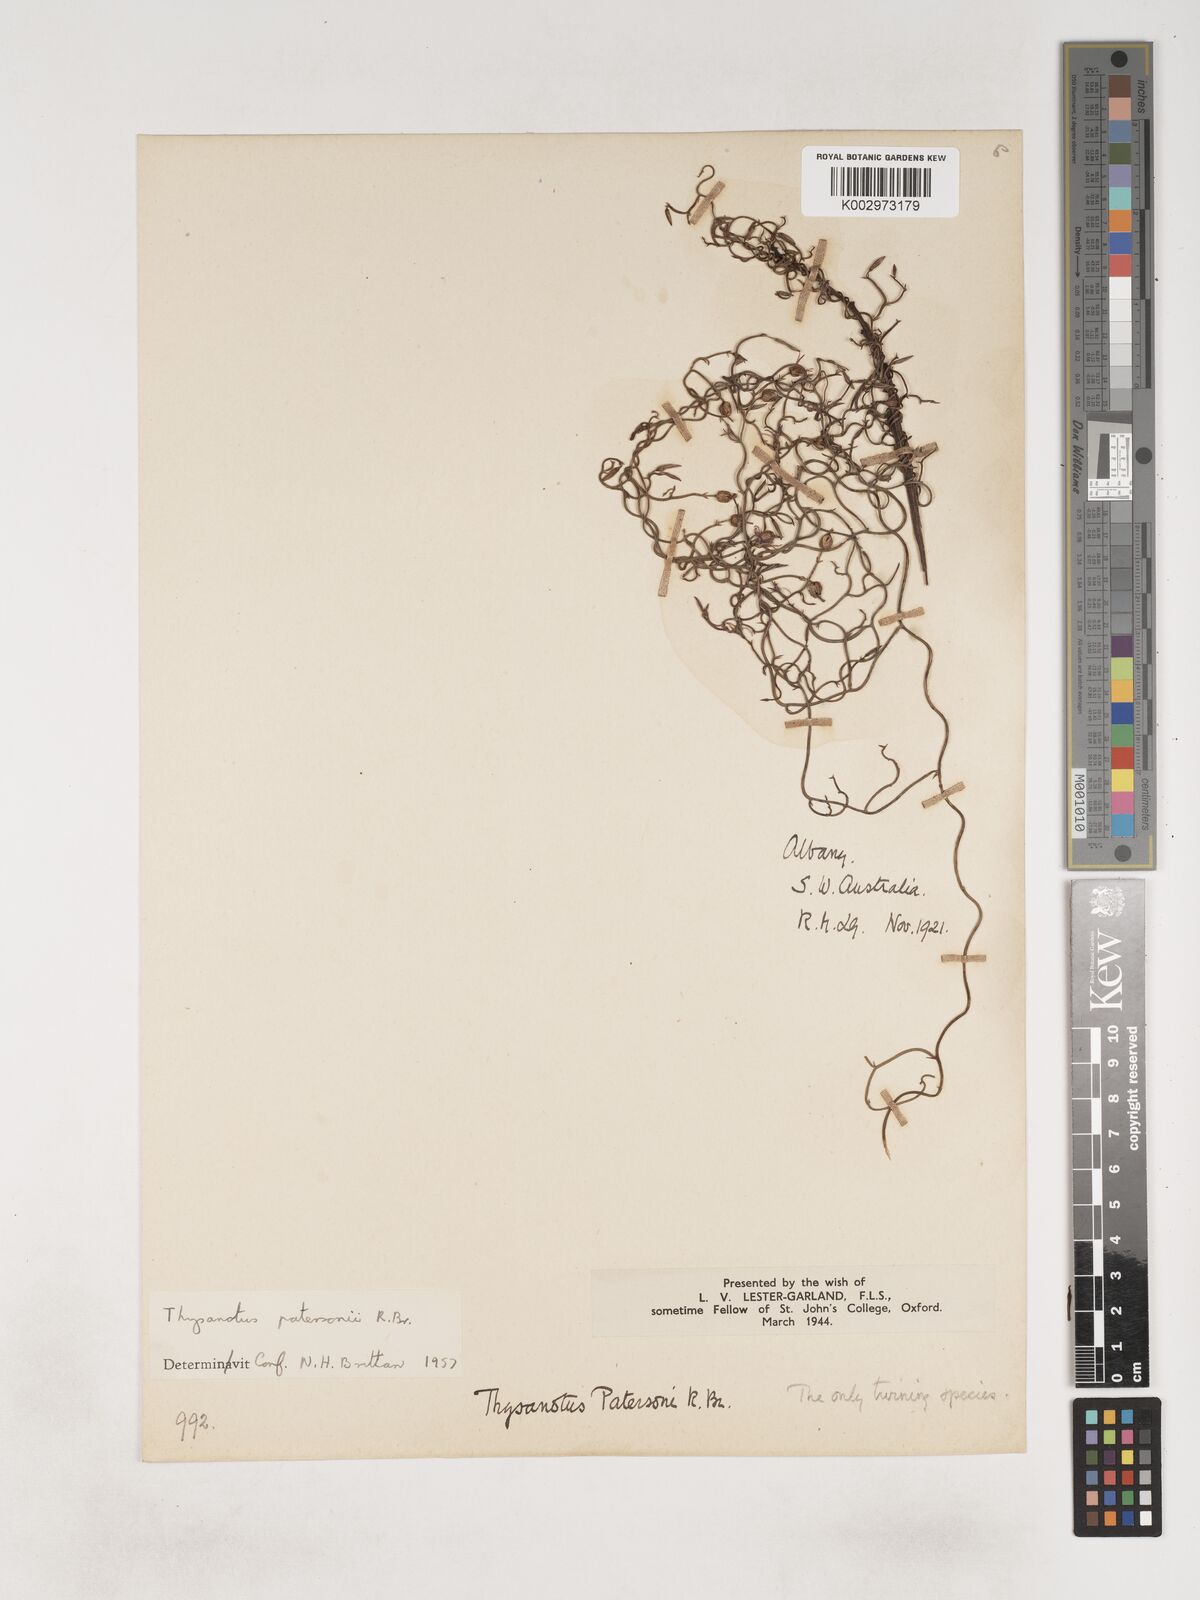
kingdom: Plantae
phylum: Tracheophyta
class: Liliopsida
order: Asparagales
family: Asparagaceae
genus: Thysanotus
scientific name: Thysanotus patersonii
